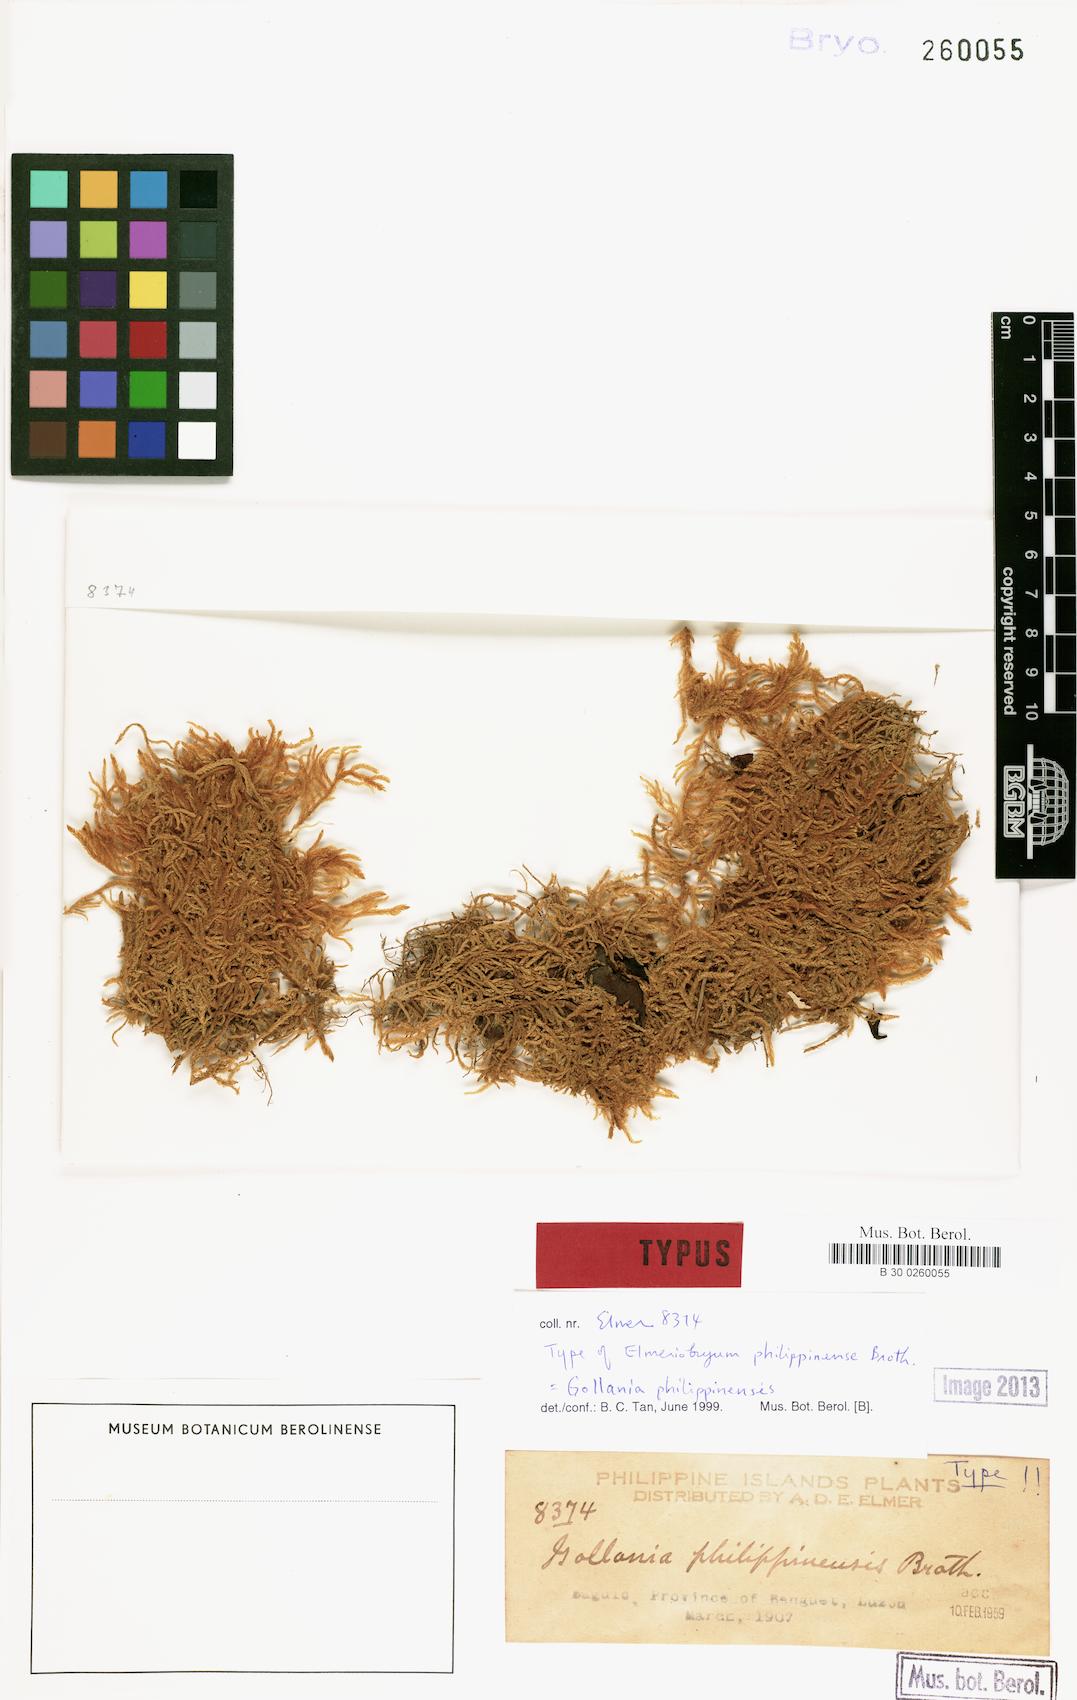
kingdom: Plantae
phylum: Bryophyta
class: Bryopsida
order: Hypnales
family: Hypnaceae
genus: Elmeriobryum
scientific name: Elmeriobryum philippinense
